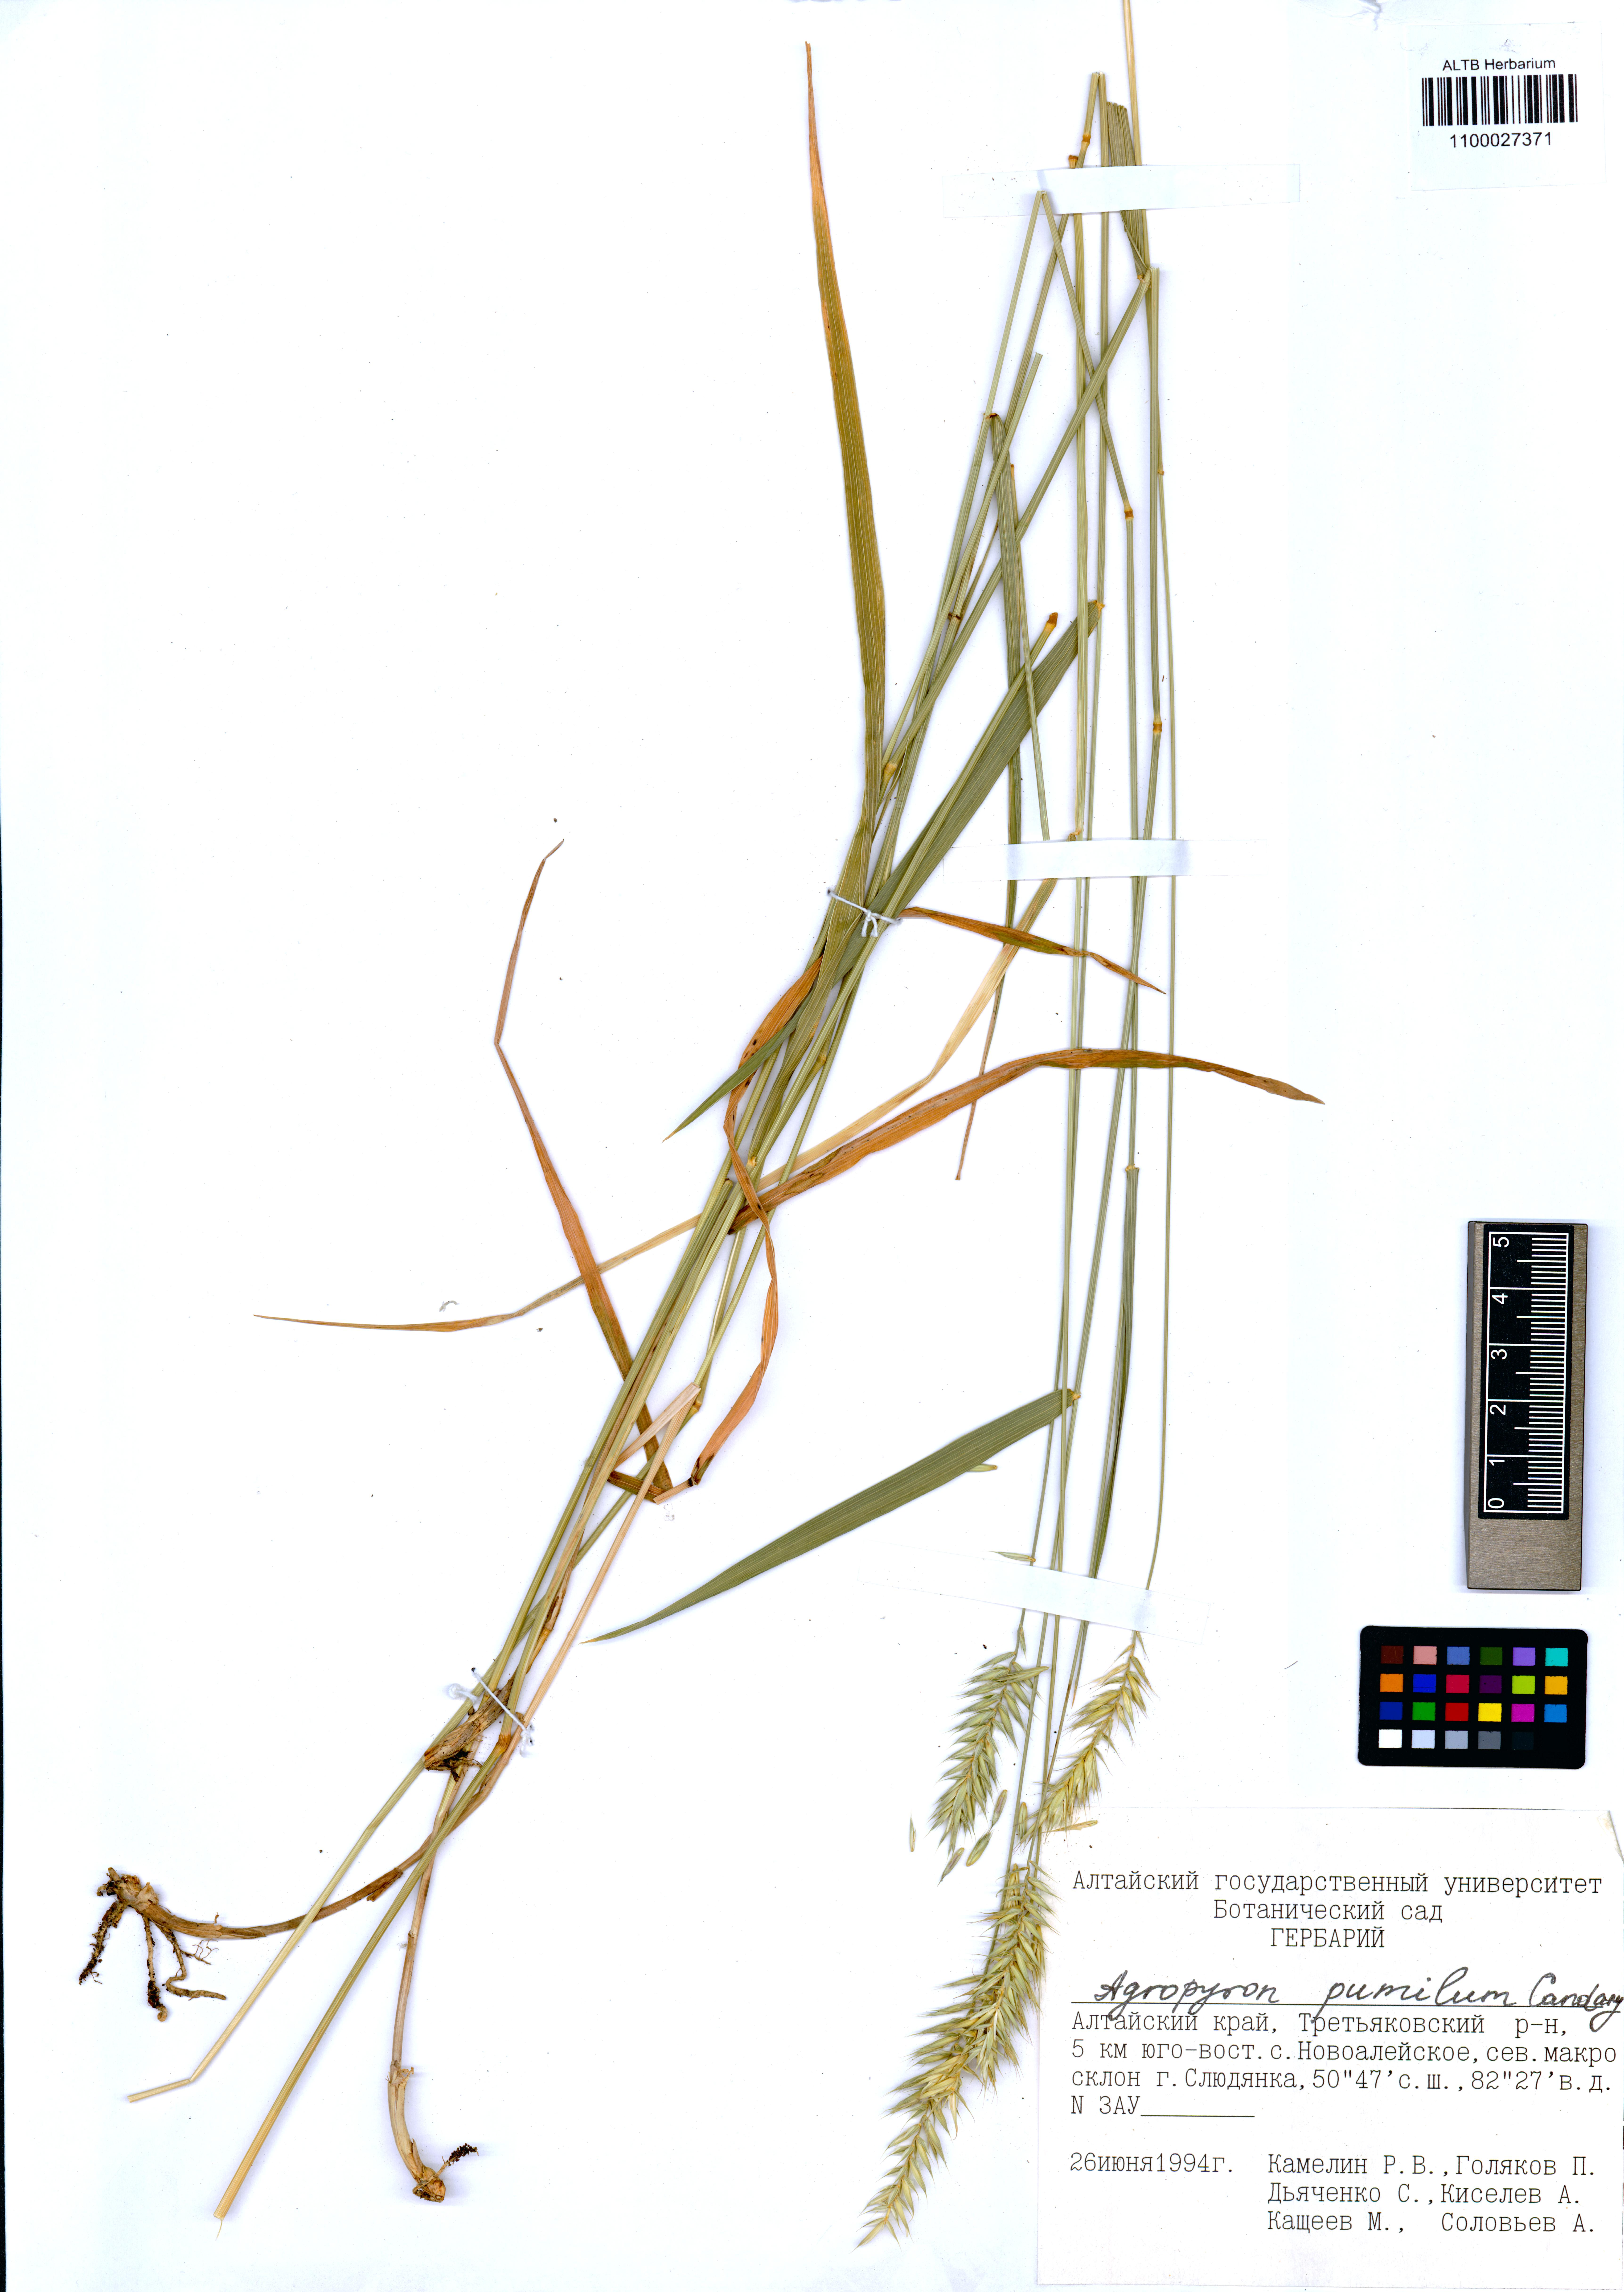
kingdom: Plantae
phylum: Tracheophyta
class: Liliopsida
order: Poales
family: Poaceae
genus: Agropyron
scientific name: Agropyron cristatum
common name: Crested wheatgrass
